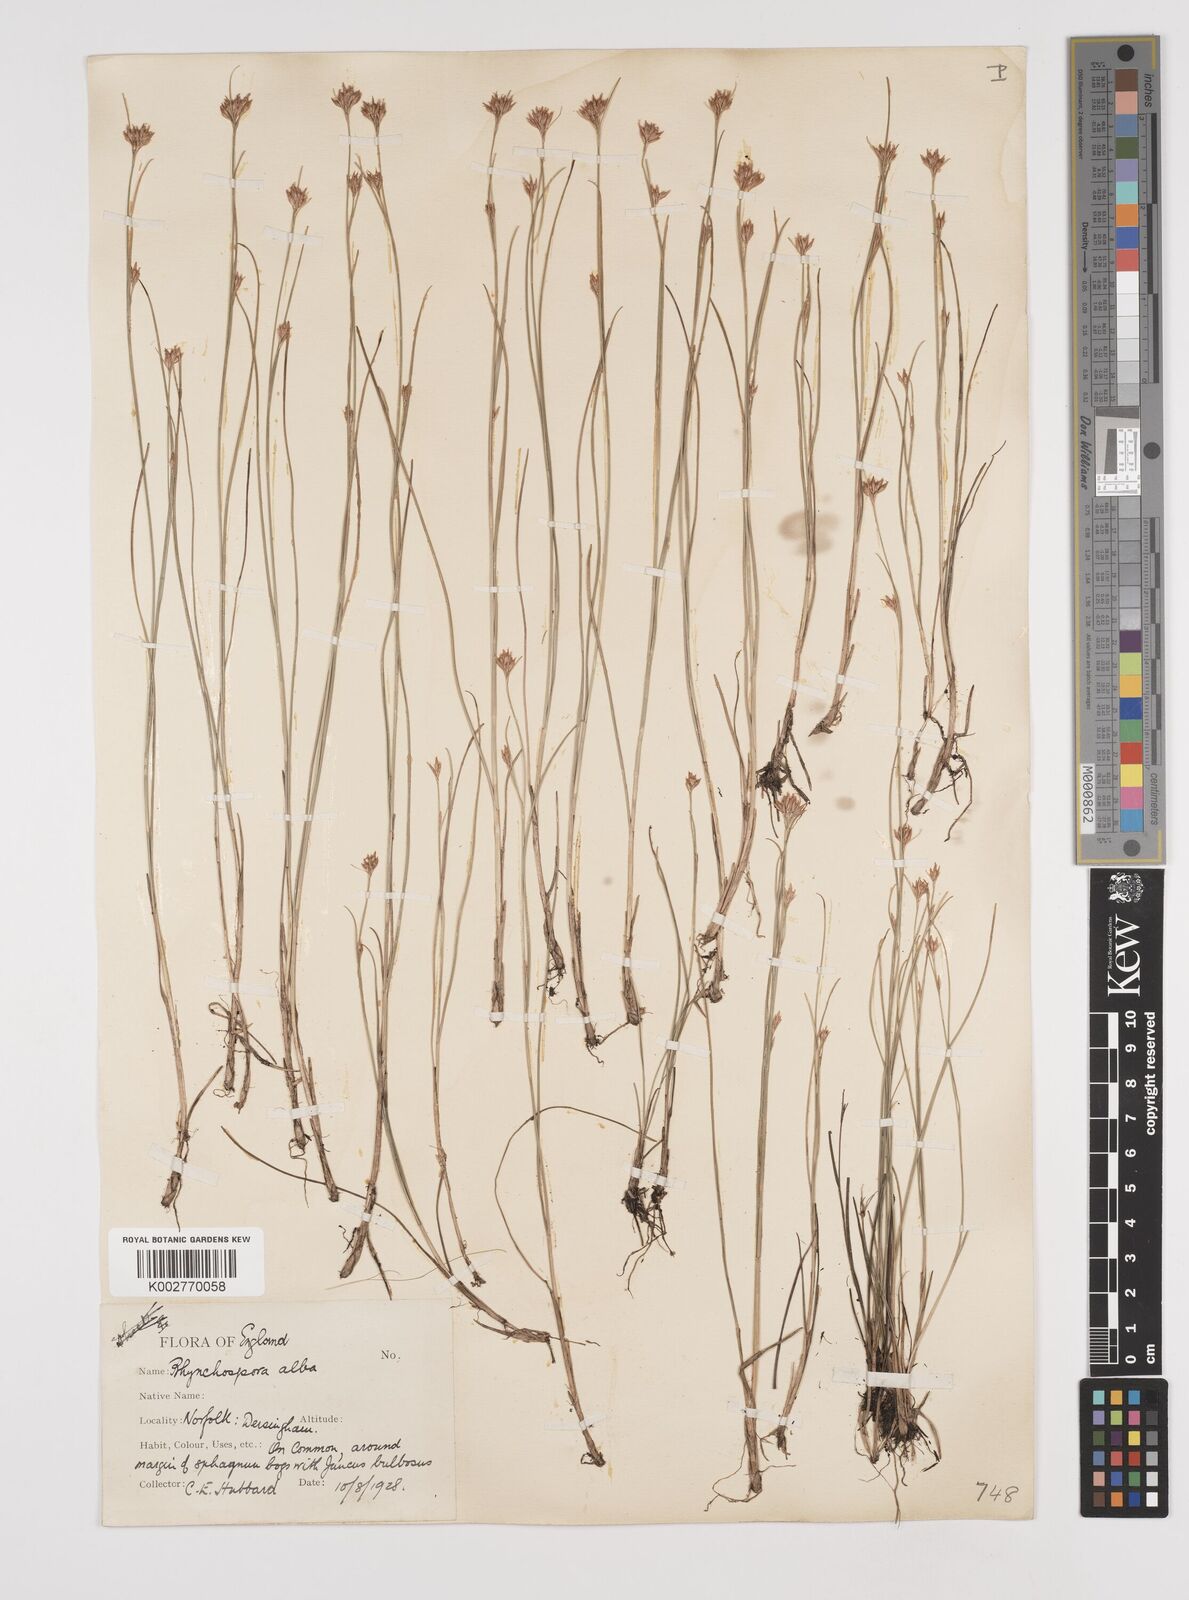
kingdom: Plantae
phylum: Tracheophyta
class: Liliopsida
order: Poales
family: Cyperaceae
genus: Rhynchospora
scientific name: Rhynchospora alba
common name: White beak-sedge
